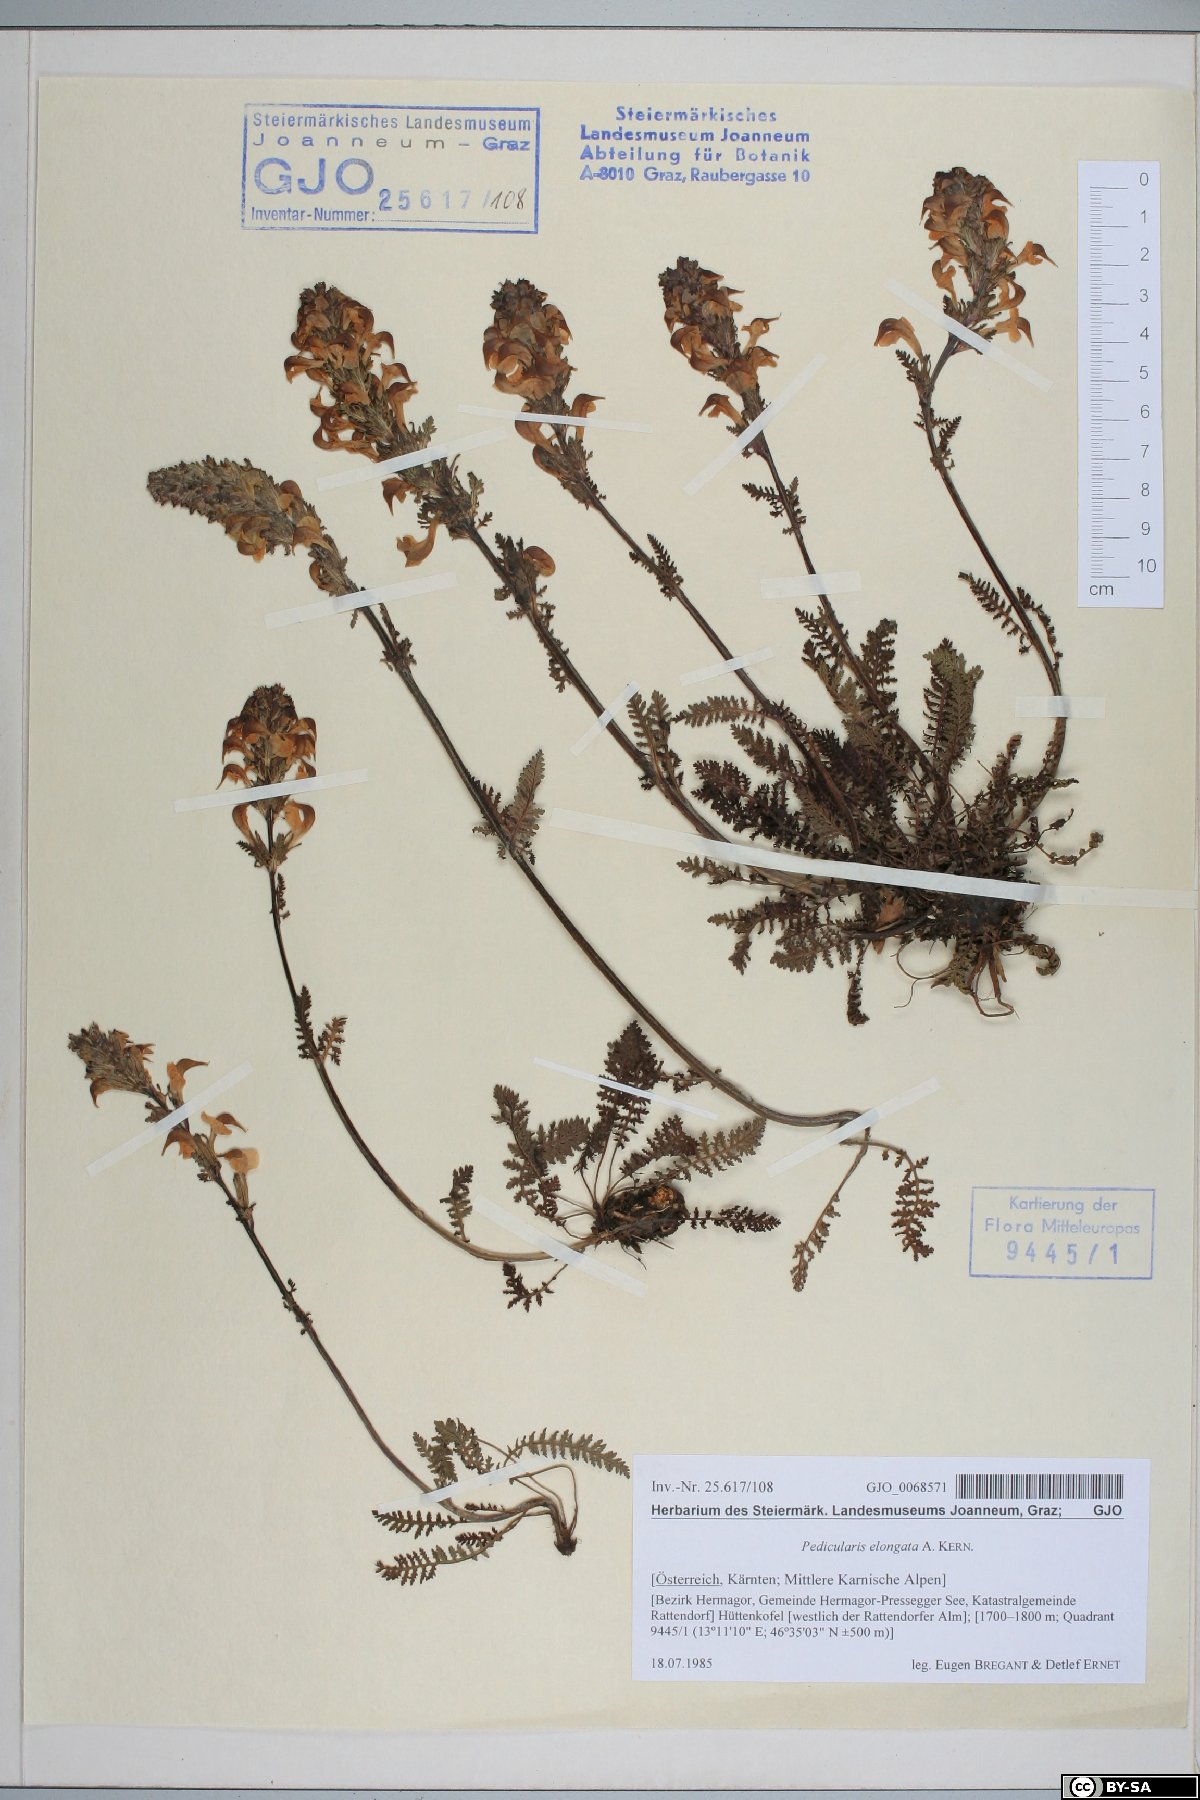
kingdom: Plantae
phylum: Tracheophyta
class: Magnoliopsida
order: Lamiales
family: Orobanchaceae
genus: Pedicularis
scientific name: Pedicularis elongata
